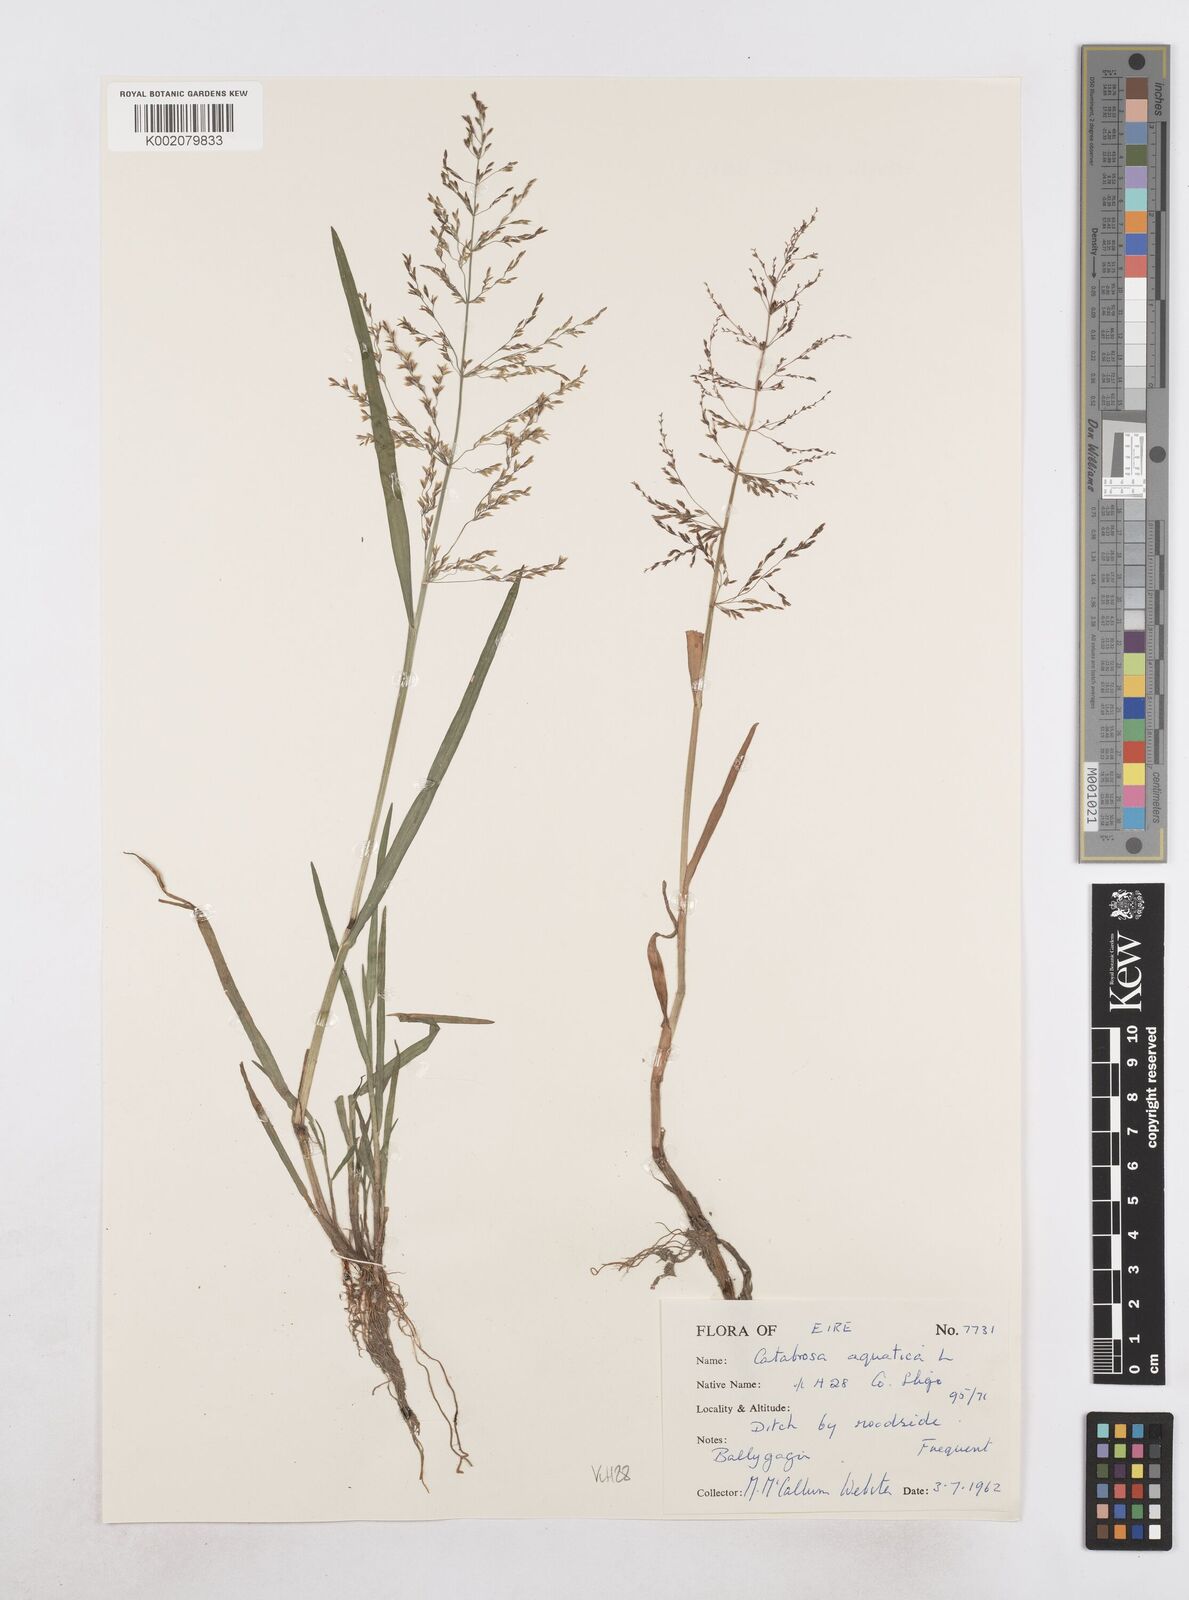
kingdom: Plantae
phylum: Tracheophyta
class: Liliopsida
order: Poales
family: Poaceae
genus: Catabrosa
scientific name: Catabrosa aquatica
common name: Whorl-grass
